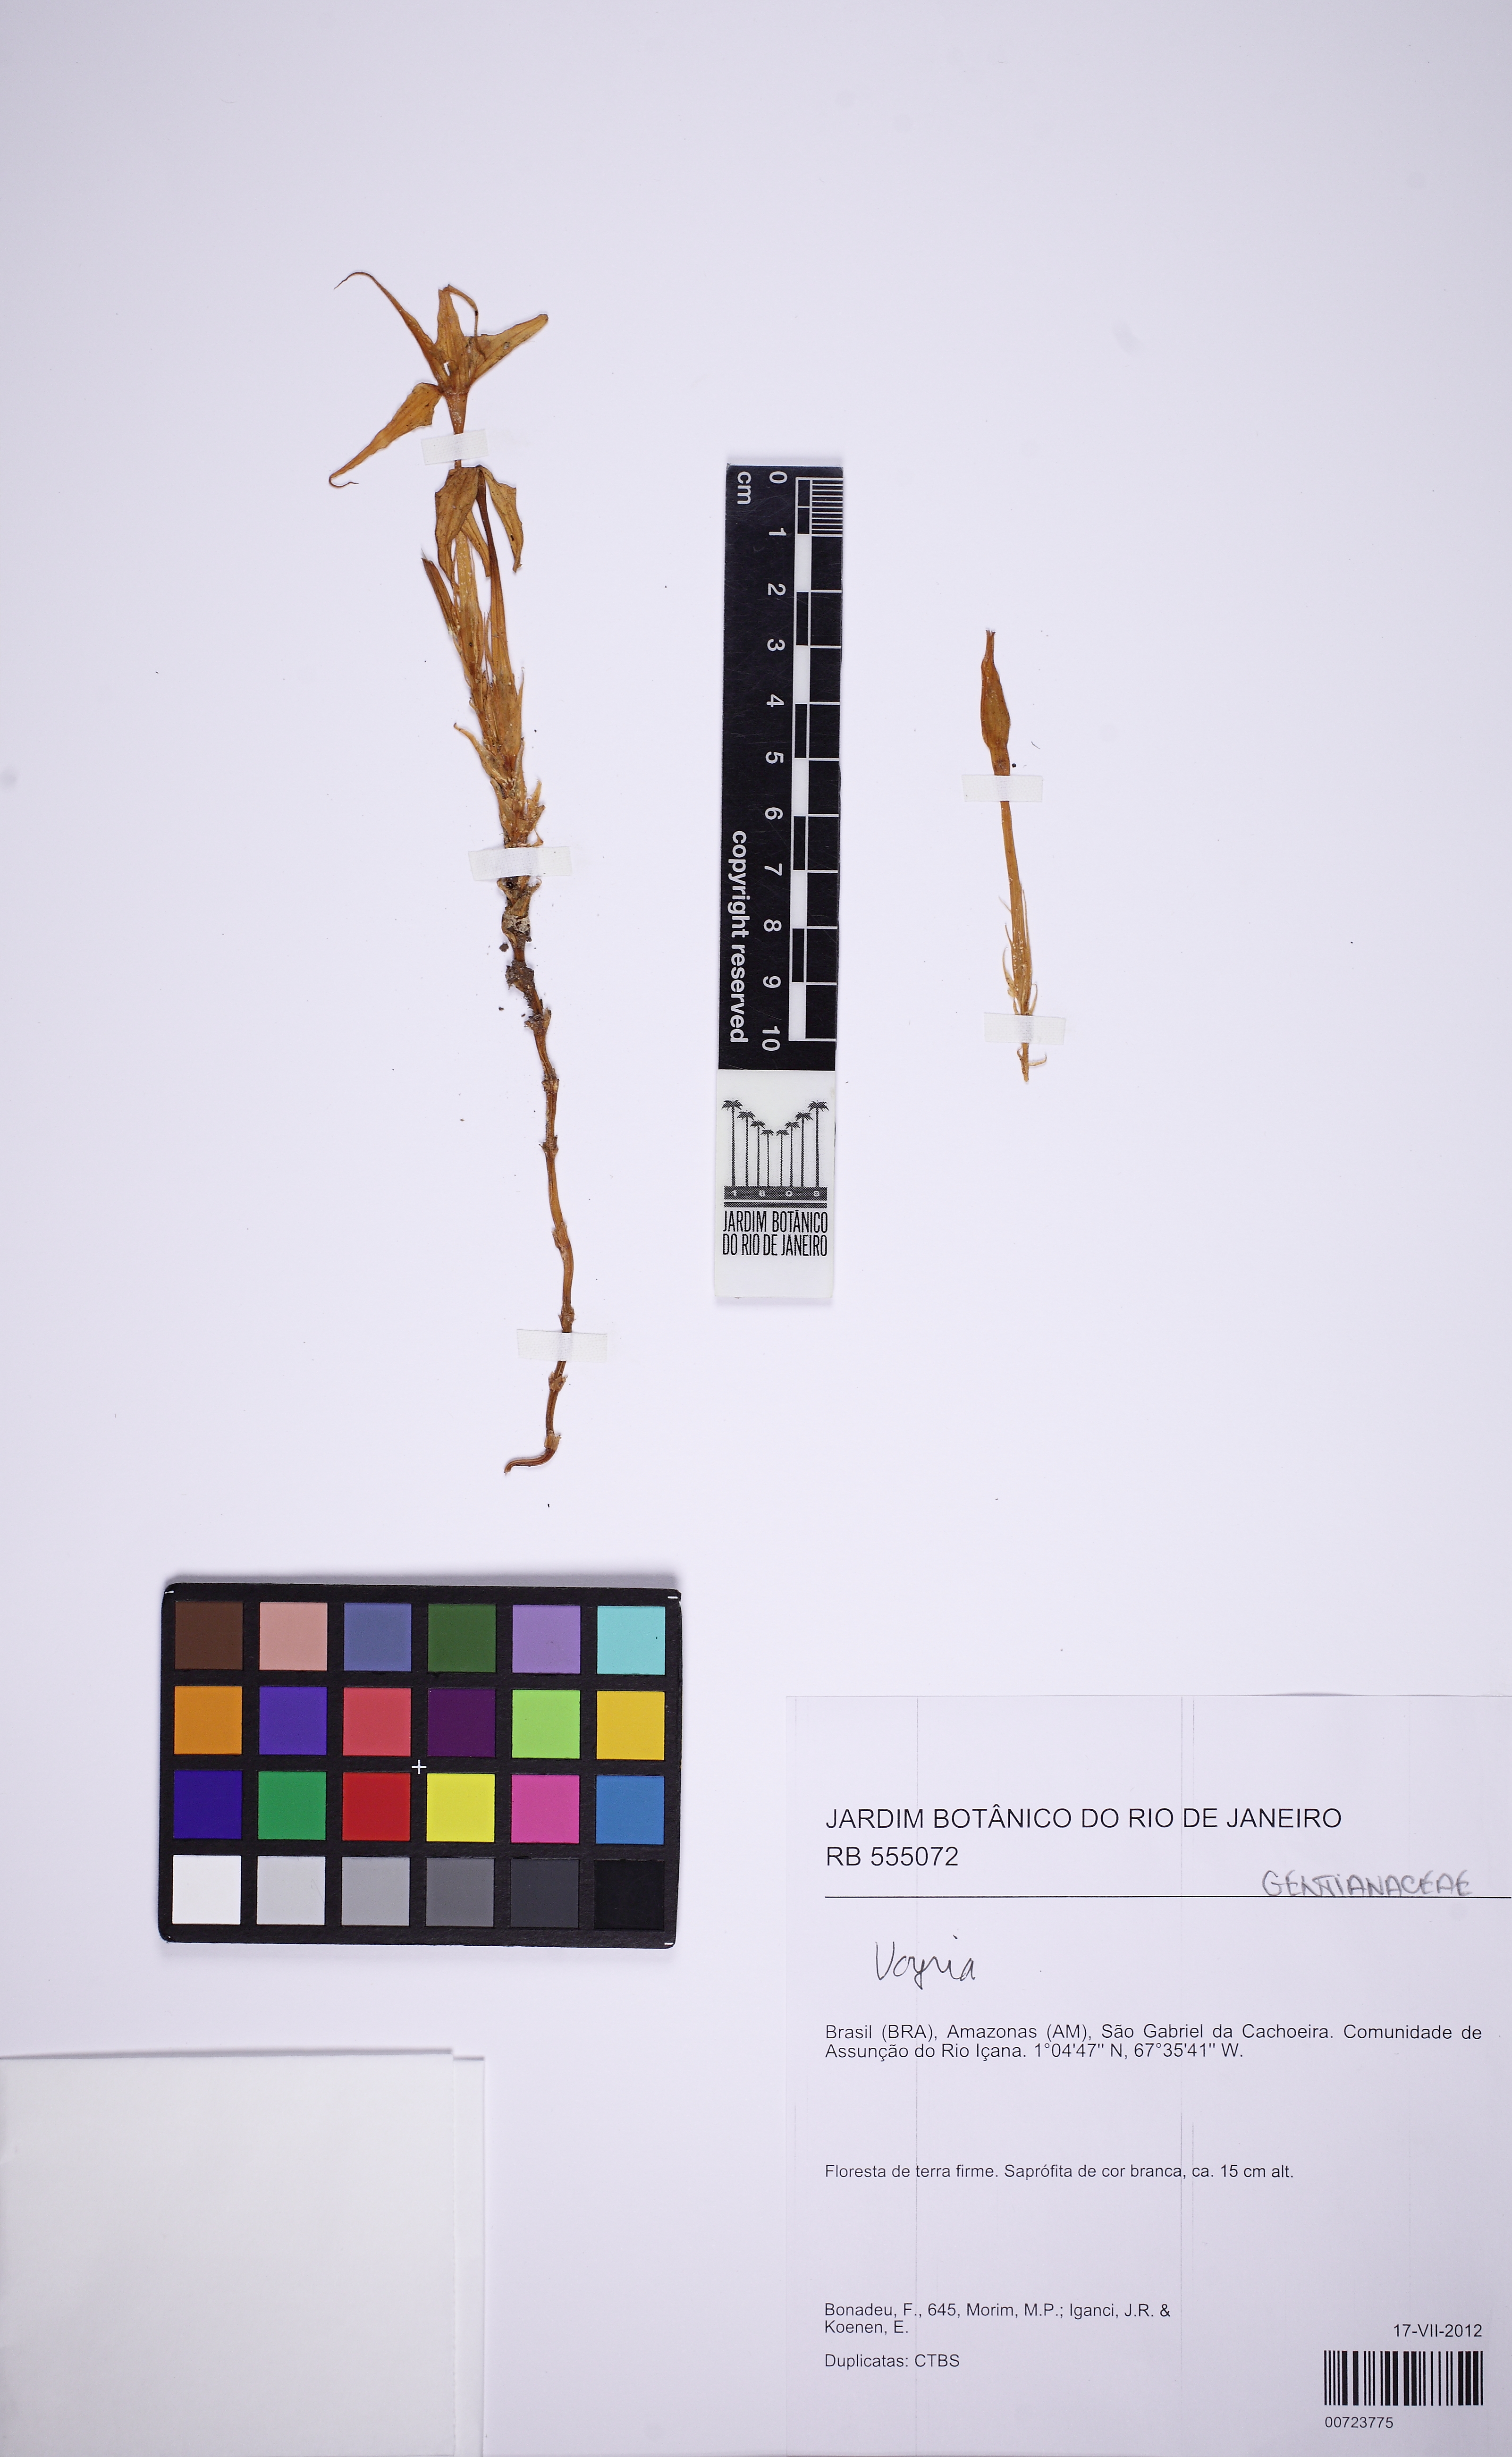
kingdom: Plantae
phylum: Tracheophyta
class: Magnoliopsida
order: Gentianales
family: Gentianaceae
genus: Voyria
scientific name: Voyria acuminata
